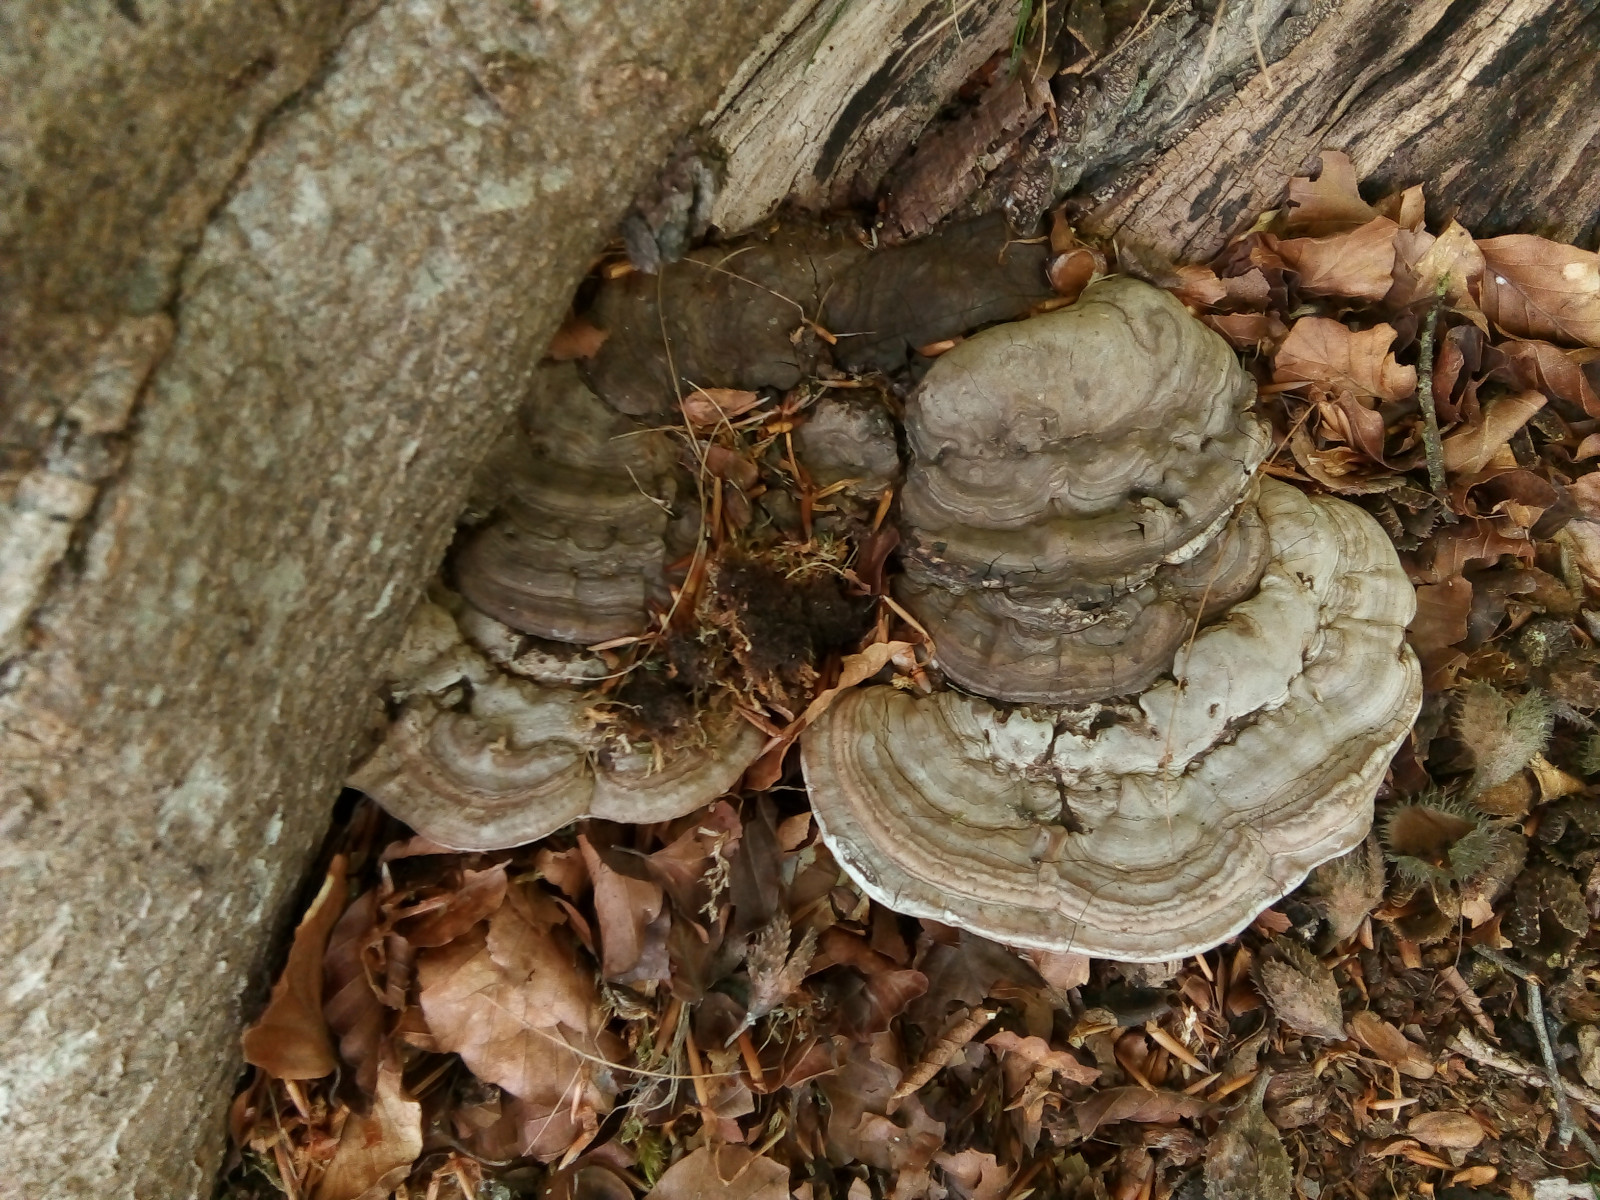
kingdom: Fungi
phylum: Basidiomycota
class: Agaricomycetes
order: Polyporales
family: Polyporaceae
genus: Ganoderma
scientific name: Ganoderma applanatum
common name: flad lakporesvamp
